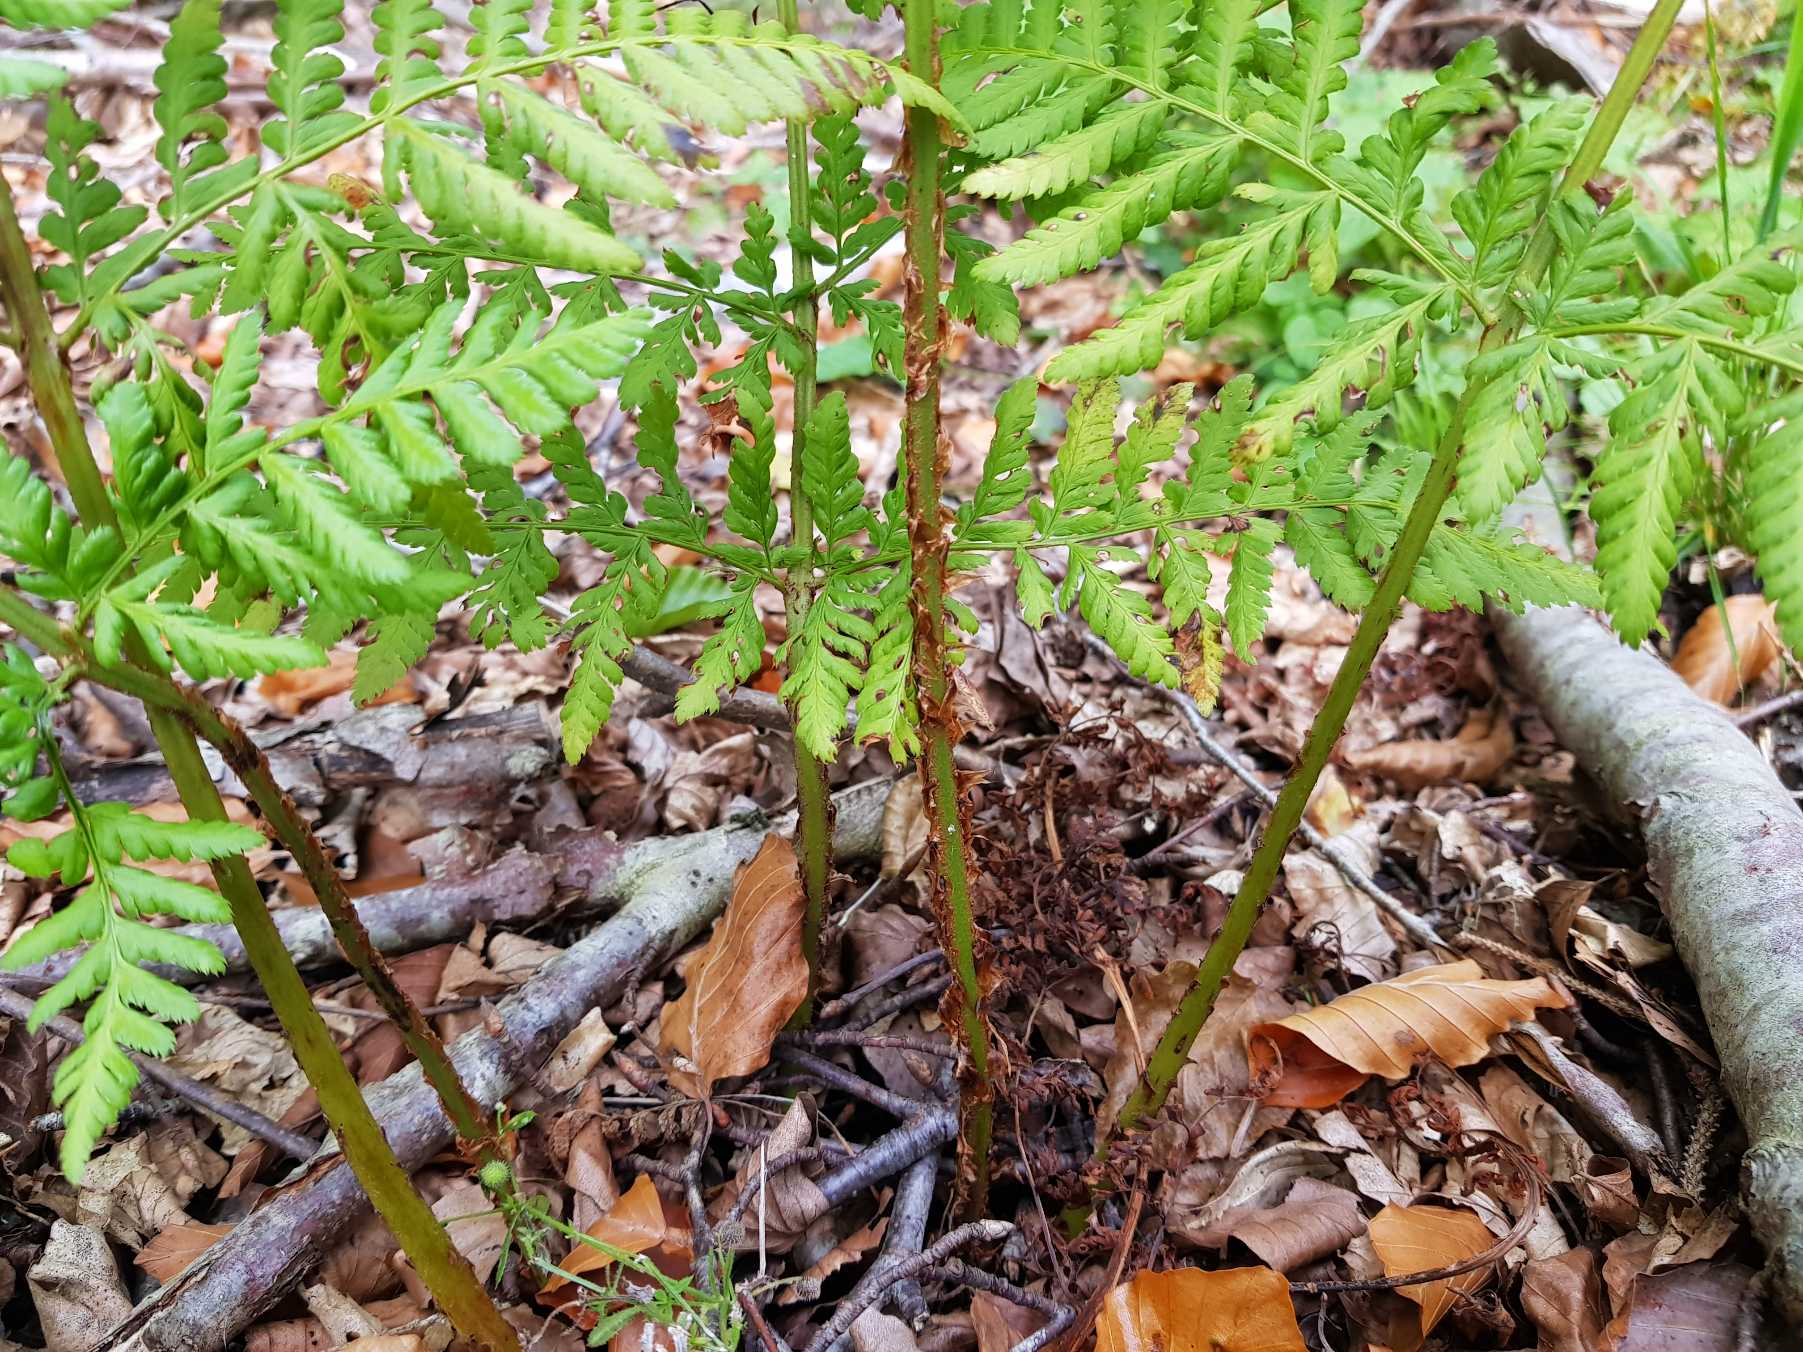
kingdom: Plantae
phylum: Tracheophyta
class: Polypodiopsida
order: Polypodiales
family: Dryopteridaceae
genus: Dryopteris
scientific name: Dryopteris dilatata
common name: Bredbladet mangeløv
